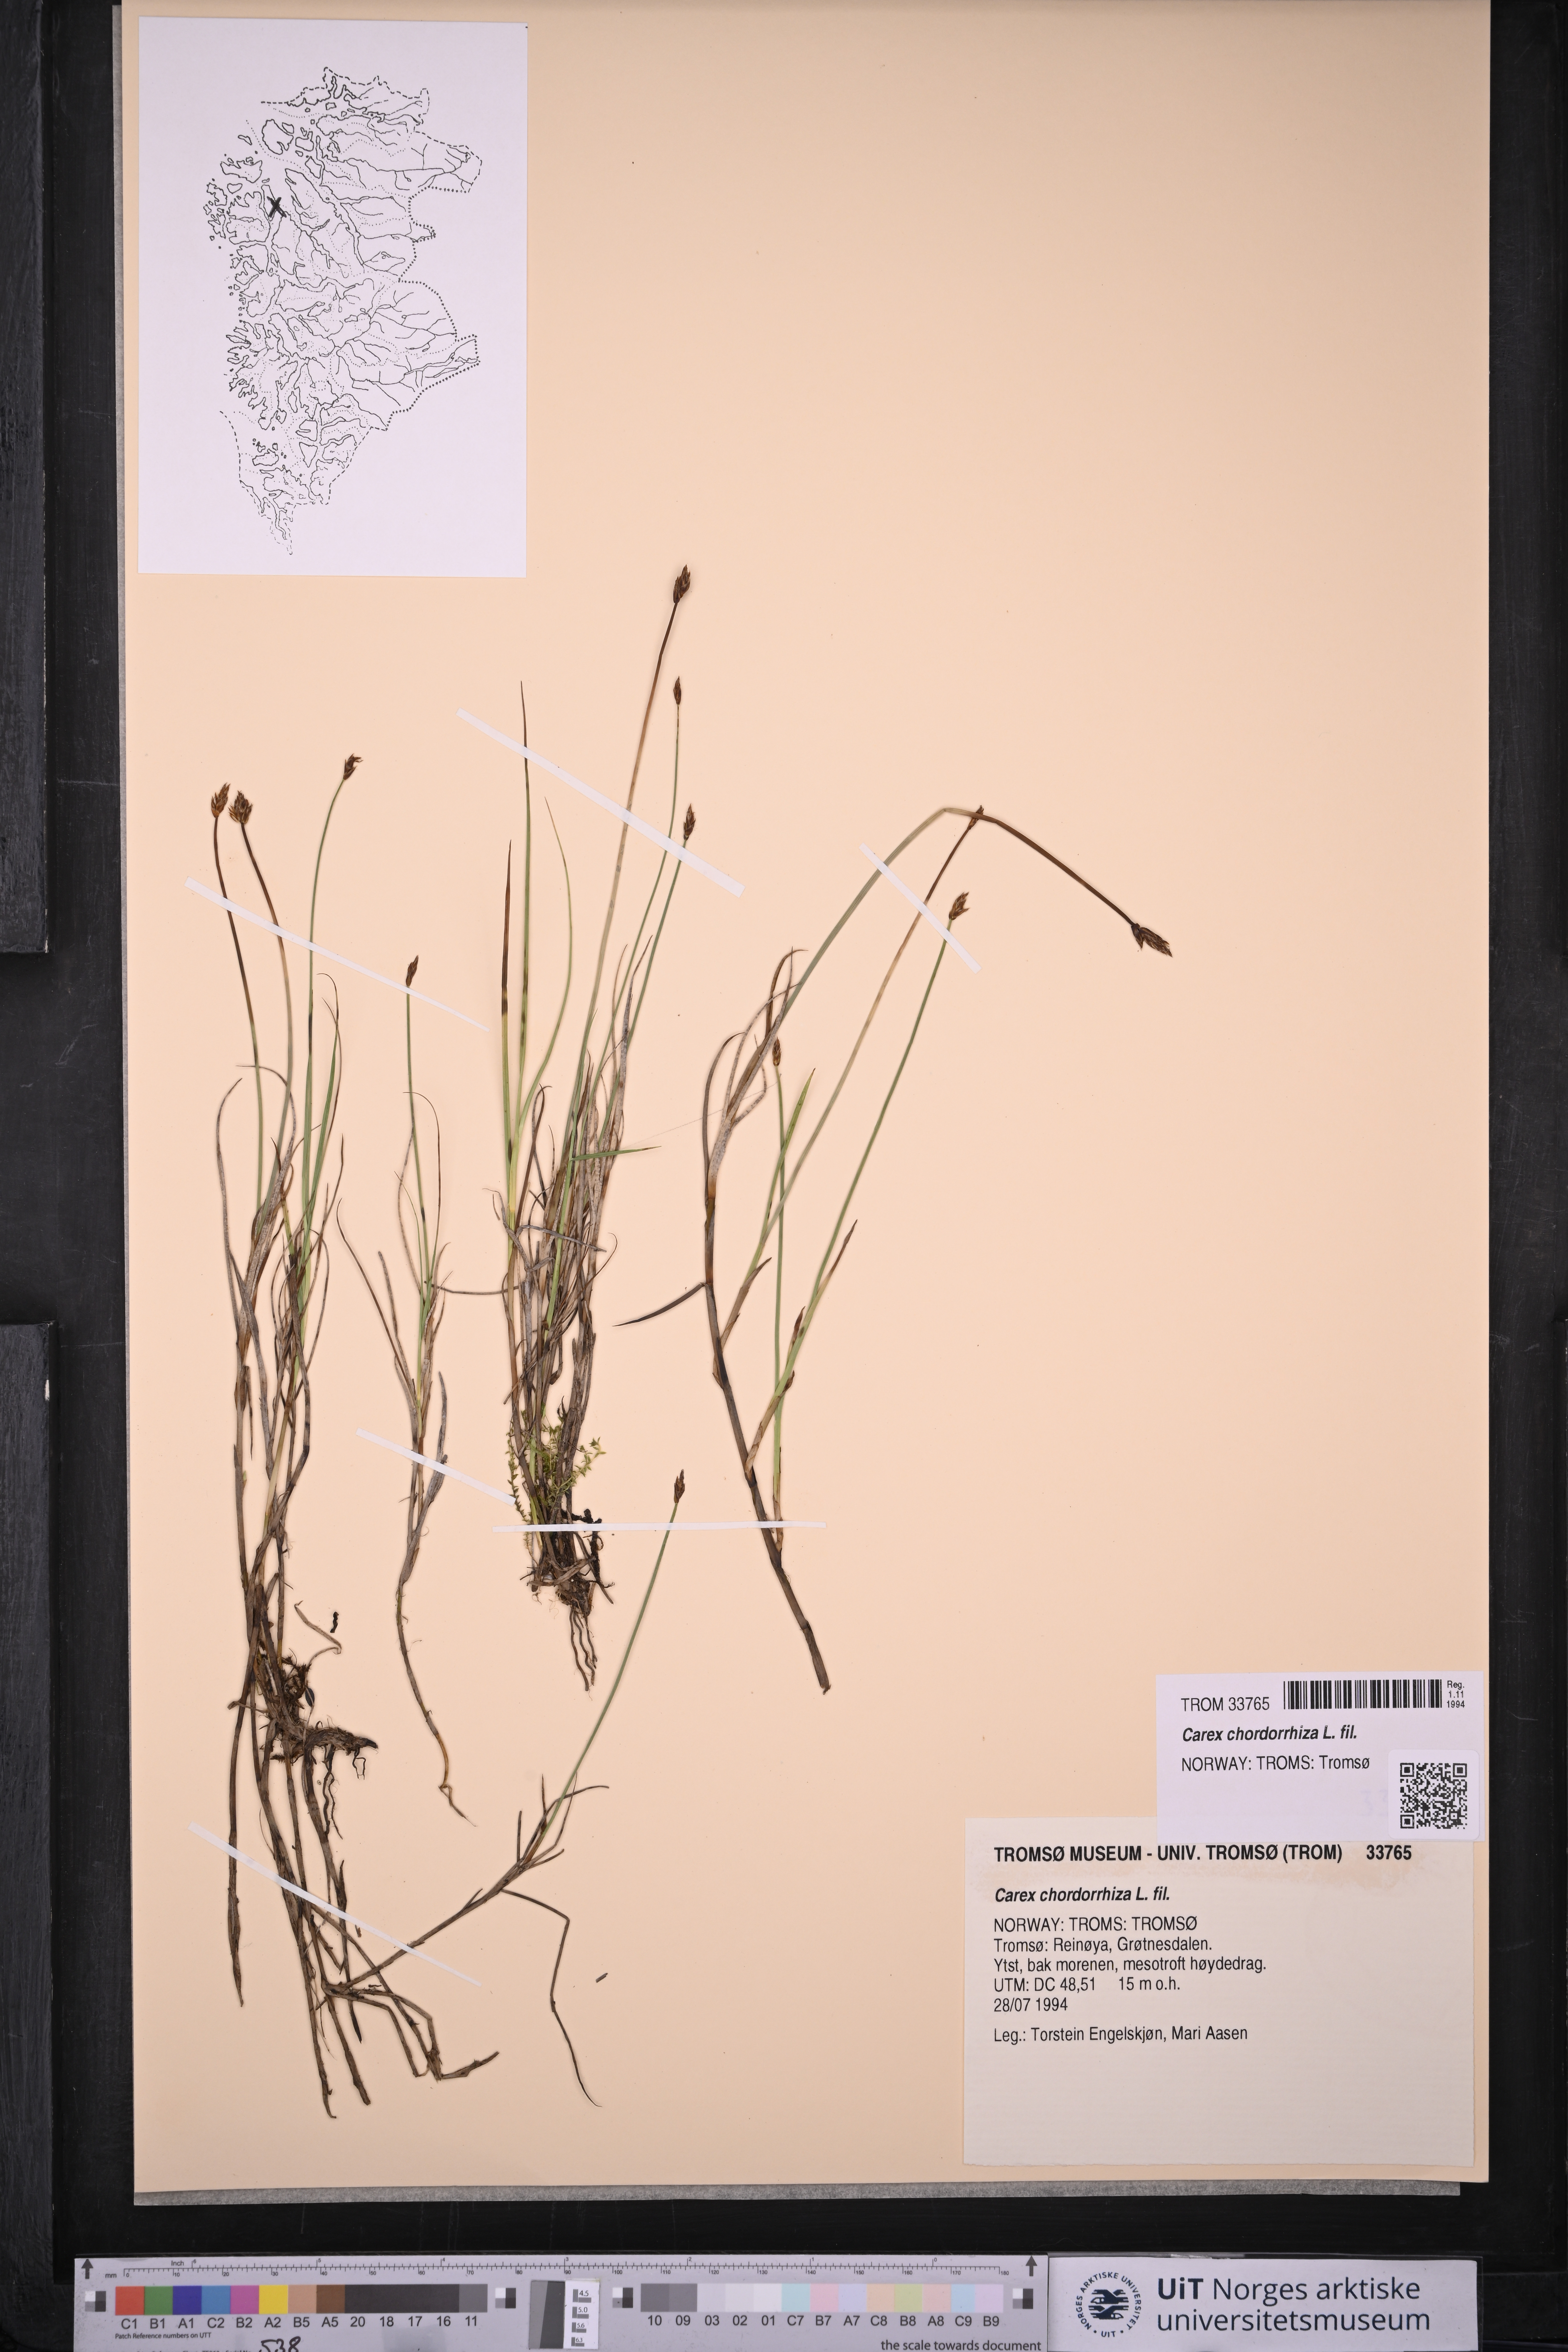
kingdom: Plantae
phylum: Tracheophyta
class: Liliopsida
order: Poales
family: Cyperaceae
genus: Carex
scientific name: Carex chordorrhiza
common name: String sedge
